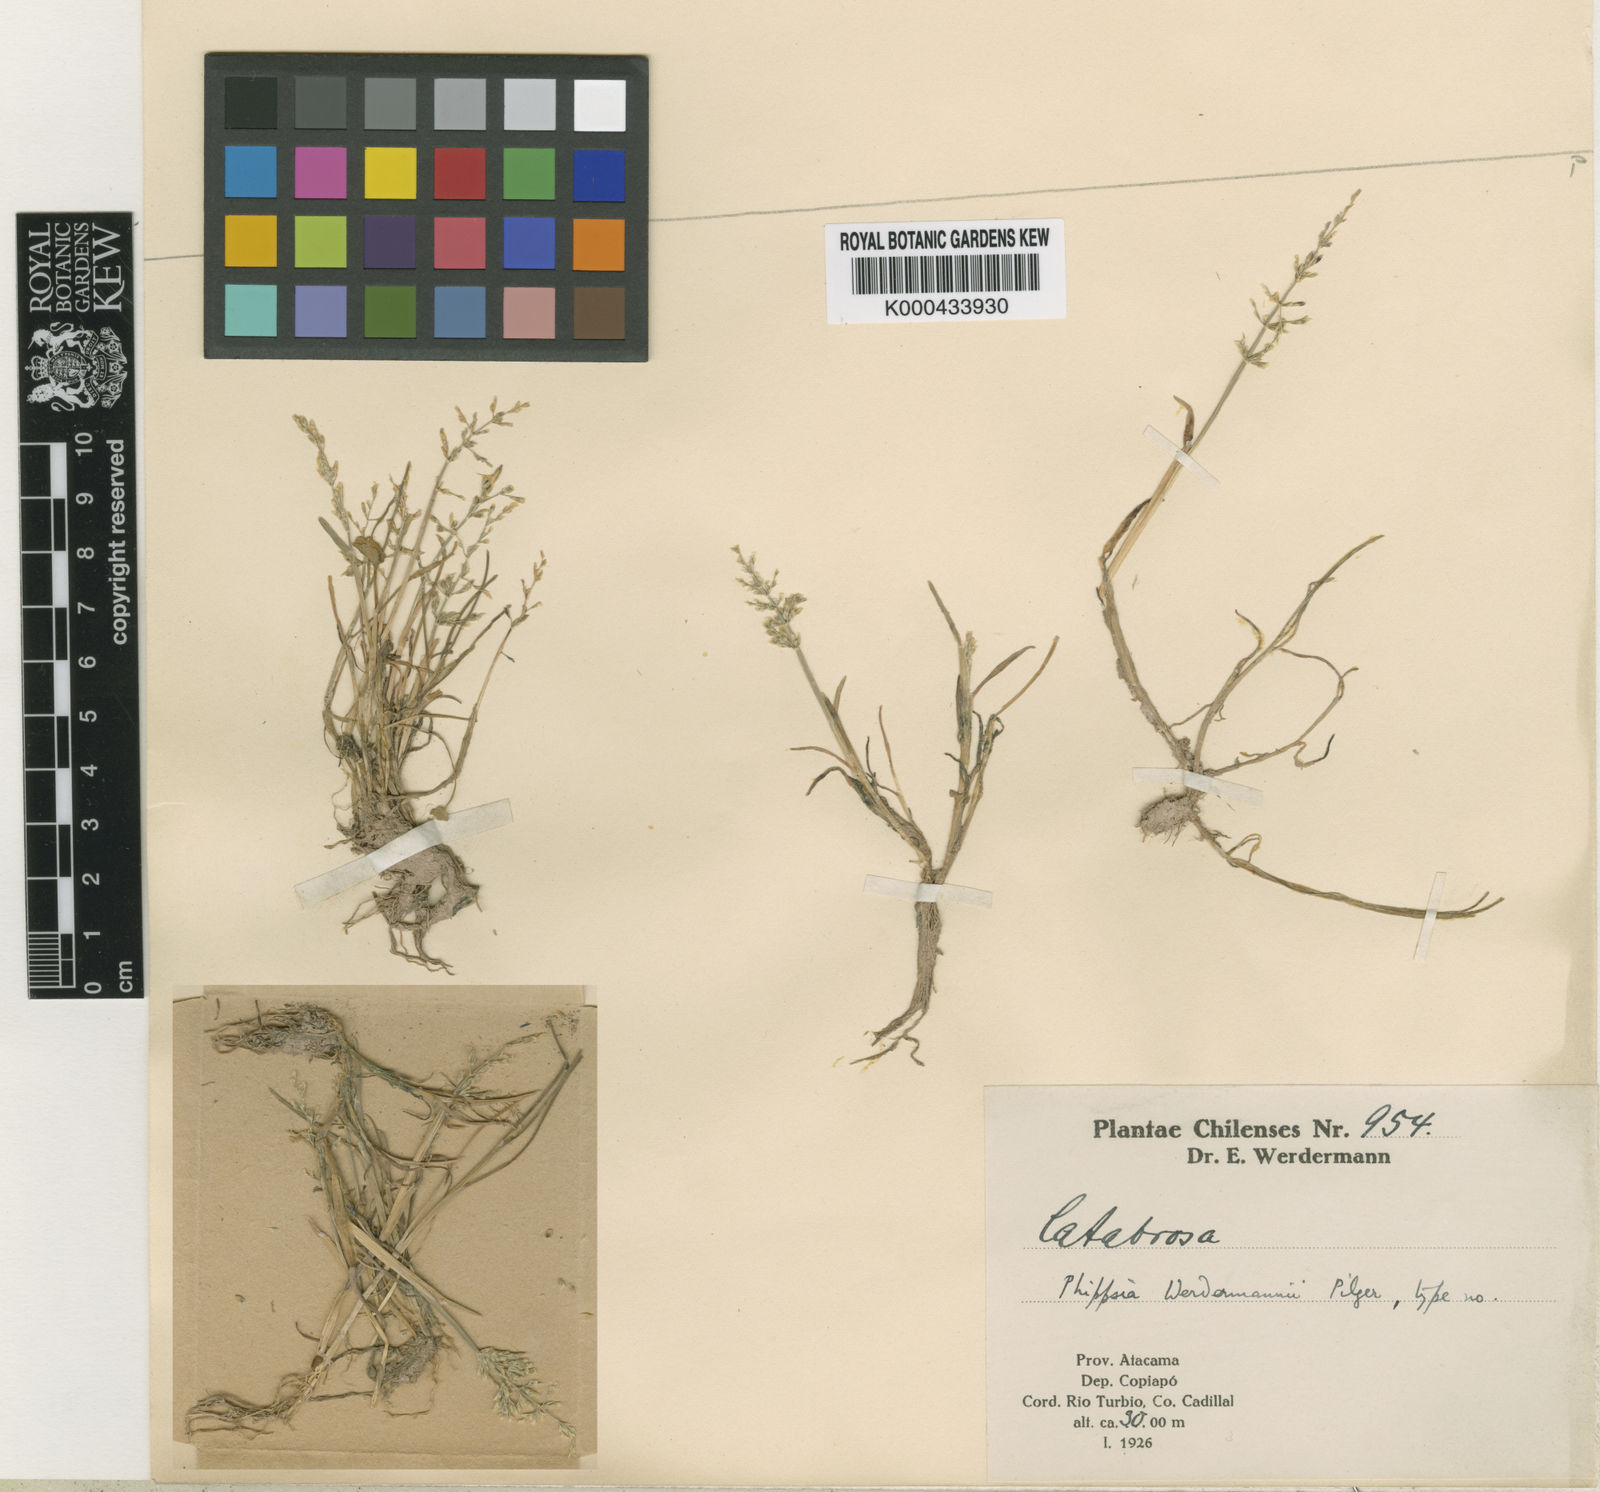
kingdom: Plantae
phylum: Tracheophyta
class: Liliopsida
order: Poales
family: Poaceae
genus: Catabrosa
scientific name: Catabrosa werdermannii
